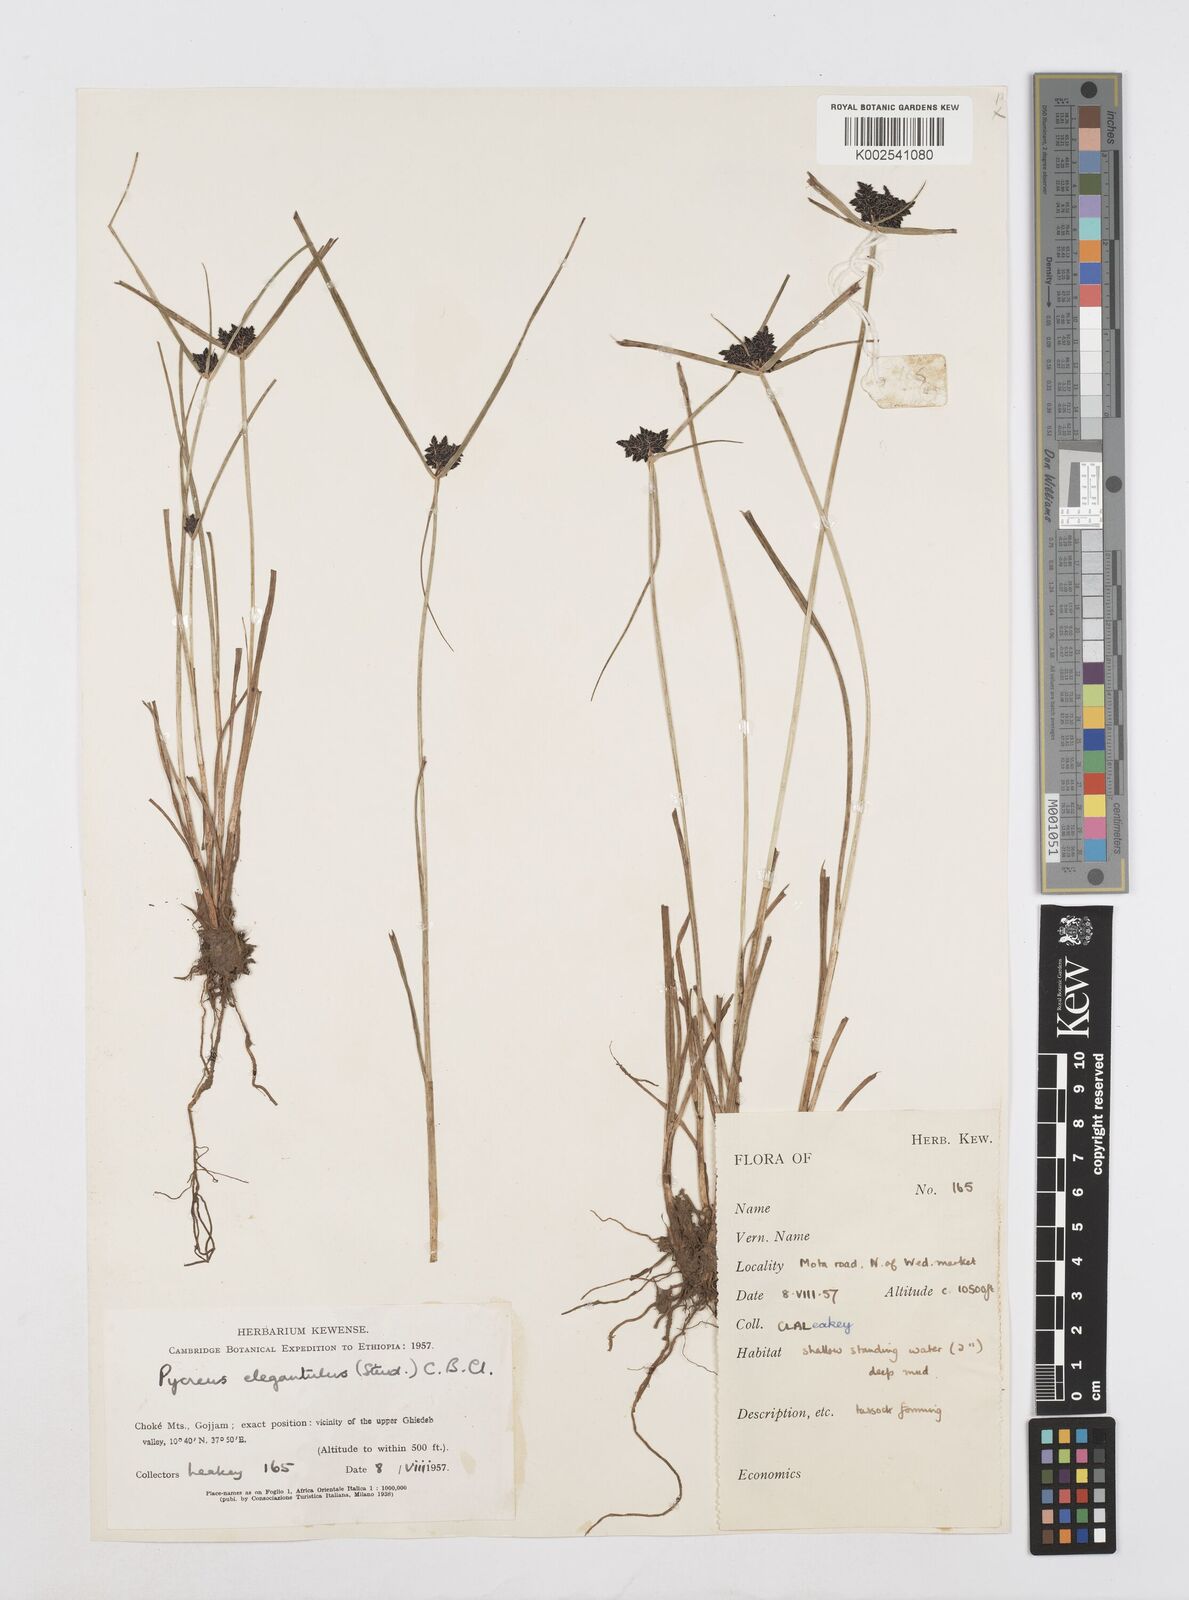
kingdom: Plantae
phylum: Tracheophyta
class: Liliopsida
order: Poales
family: Cyperaceae
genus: Cyperus
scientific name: Cyperus elegantulus
